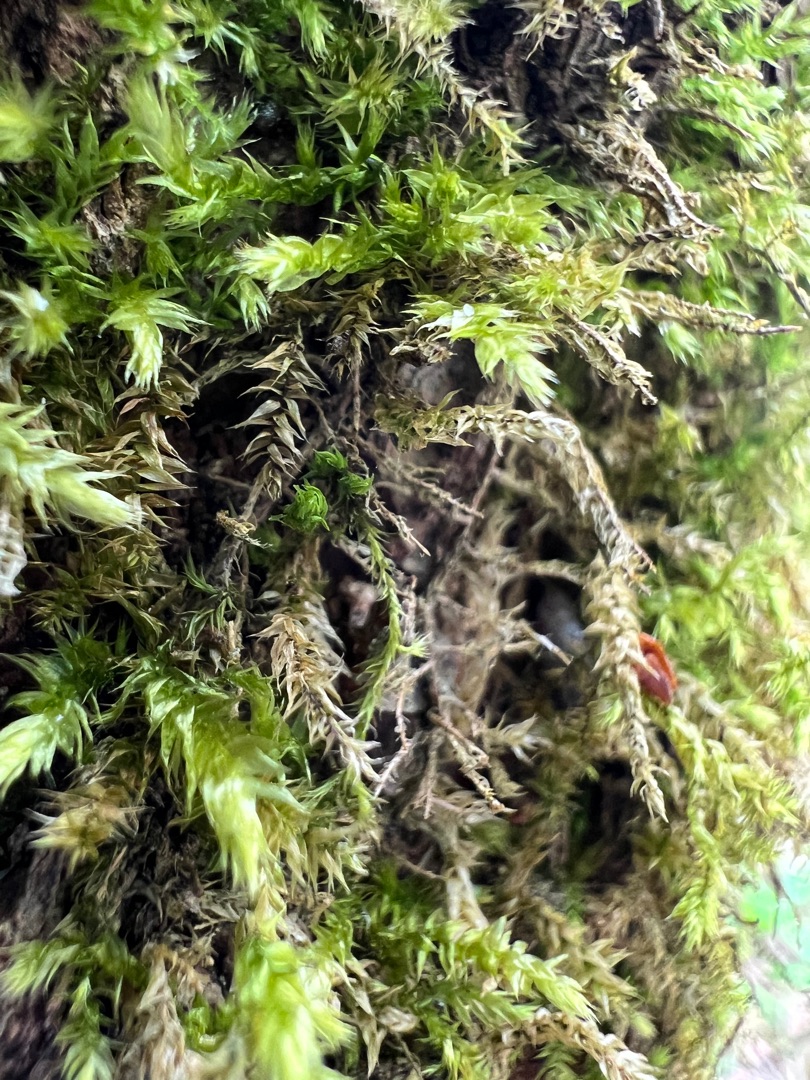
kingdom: Plantae
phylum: Bryophyta
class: Bryopsida
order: Hypnales
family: Brachytheciaceae
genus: Brachythecium
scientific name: Brachythecium rutabulum
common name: Almindelig kortkapsel
